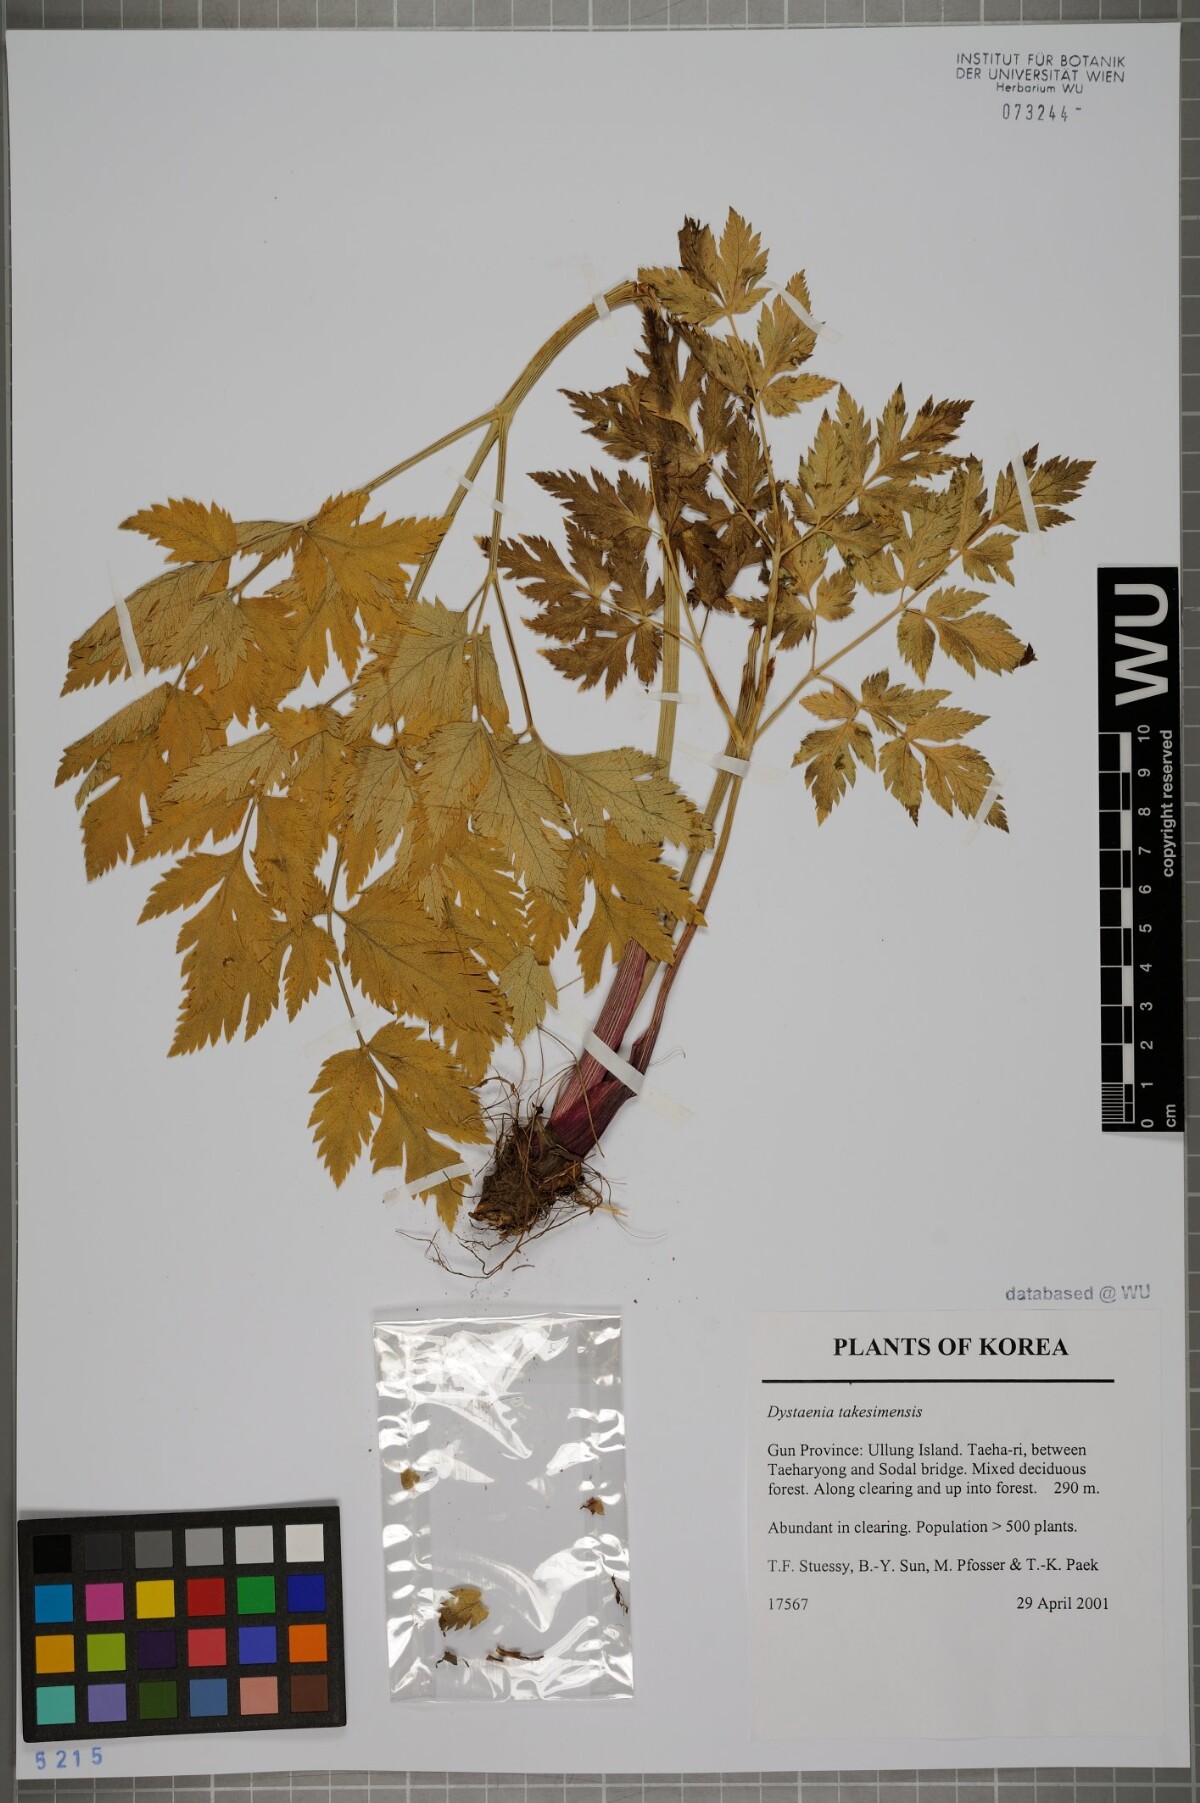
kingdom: Plantae
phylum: Tracheophyta
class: Magnoliopsida
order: Apiales
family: Apiaceae
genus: Dystaenia
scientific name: Dystaenia takeshimana
